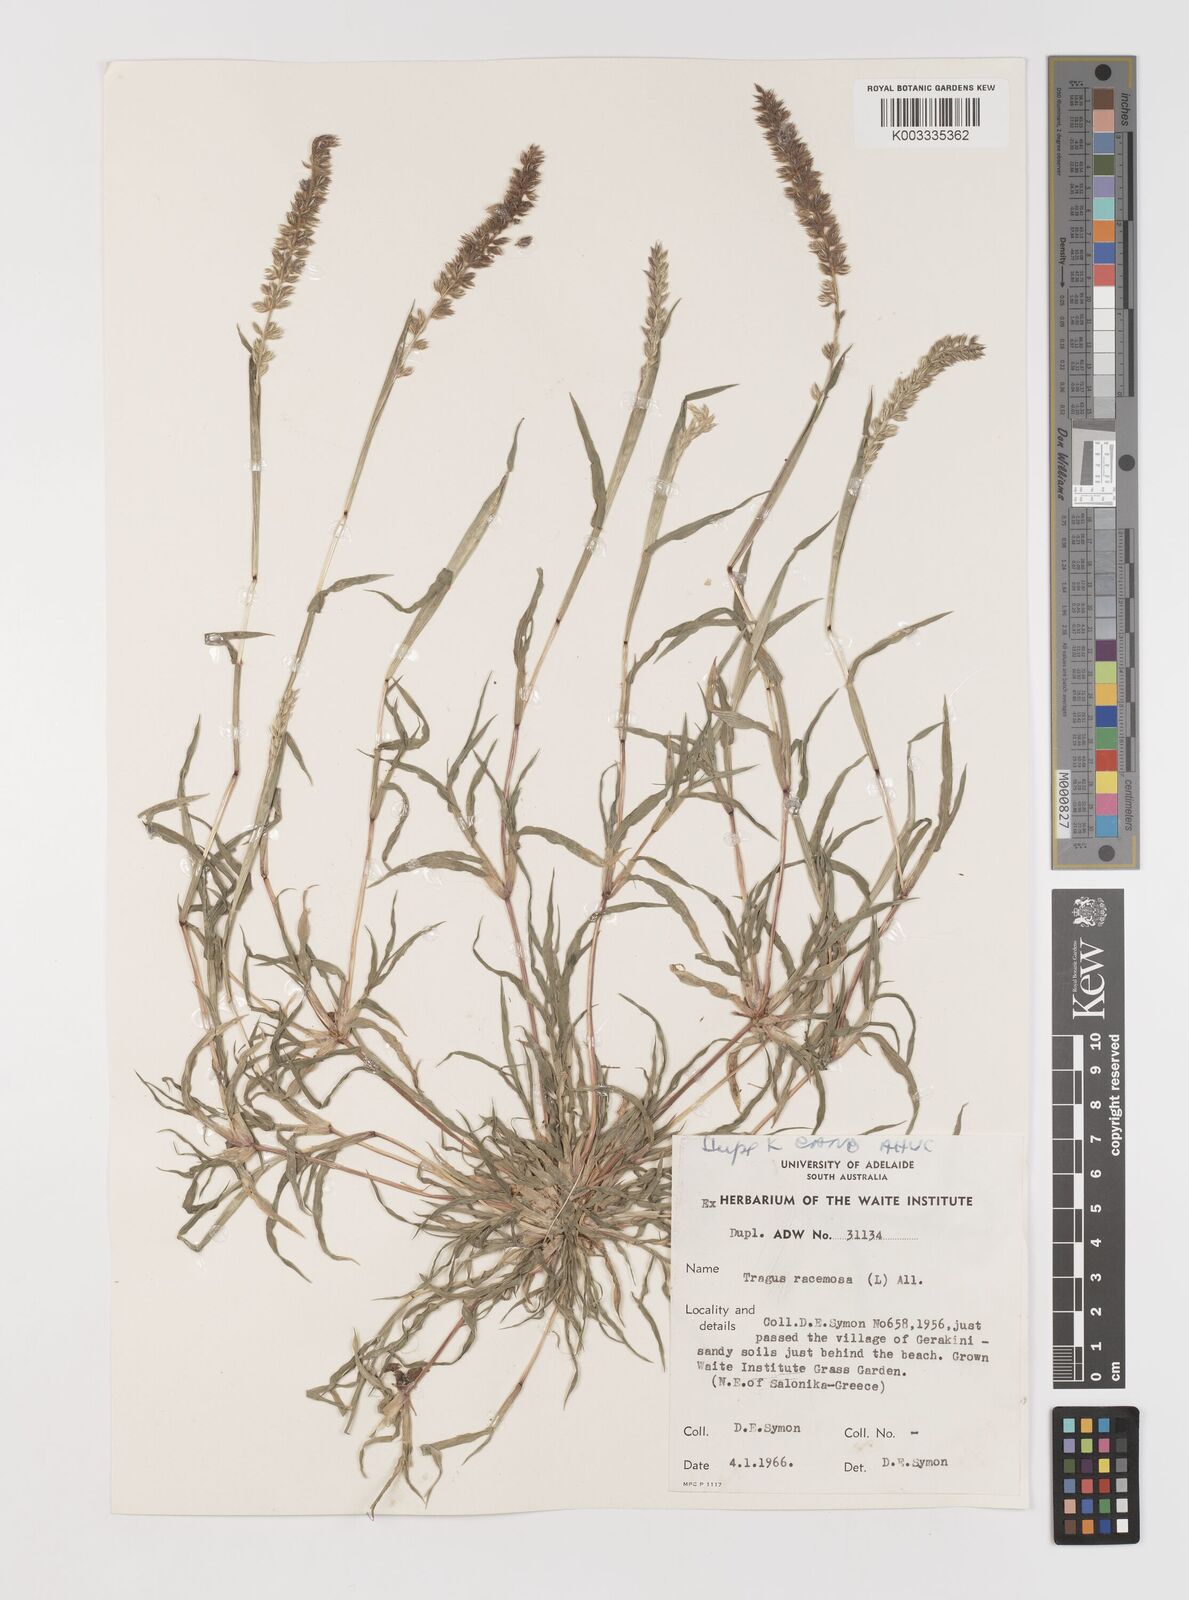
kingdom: Plantae
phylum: Tracheophyta
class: Liliopsida
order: Poales
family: Poaceae
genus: Tragus
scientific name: Tragus racemosus
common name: European bur-grass
